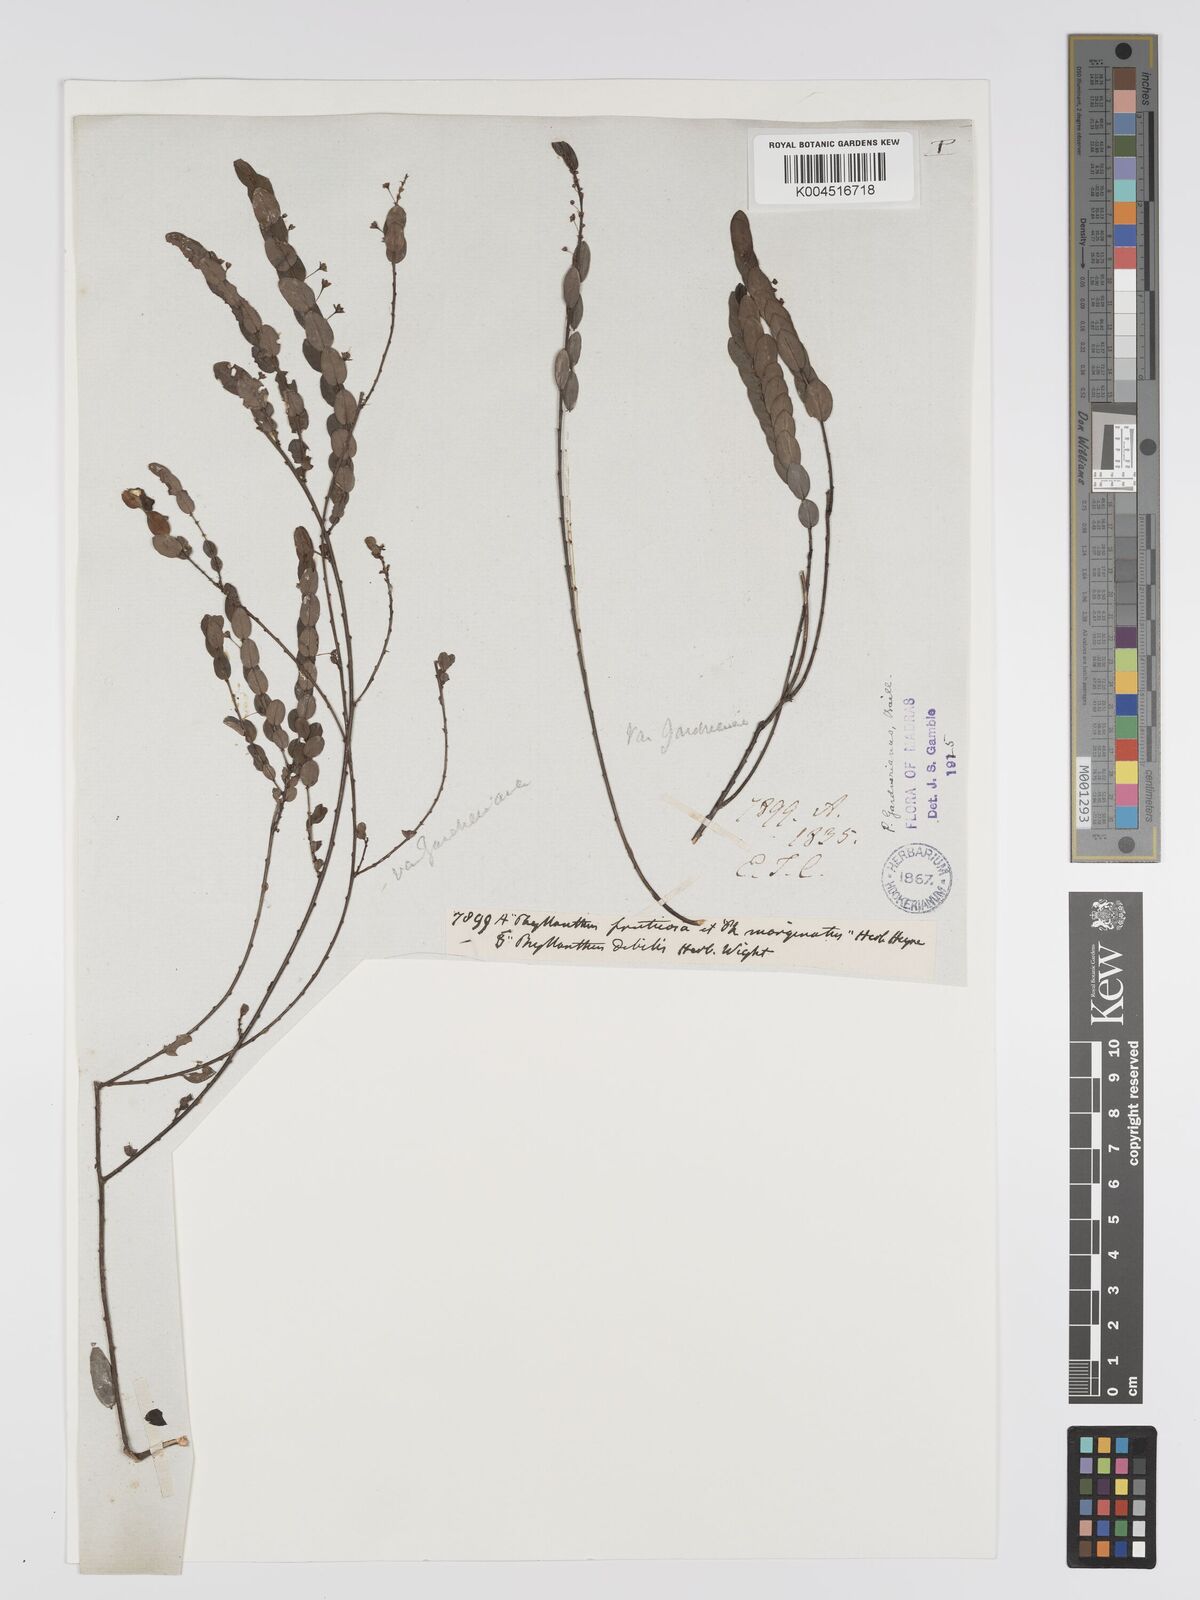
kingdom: Plantae
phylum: Tracheophyta
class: Magnoliopsida
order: Malpighiales
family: Phyllanthaceae
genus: Phyllanthus
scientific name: Phyllanthus gardnerianus
